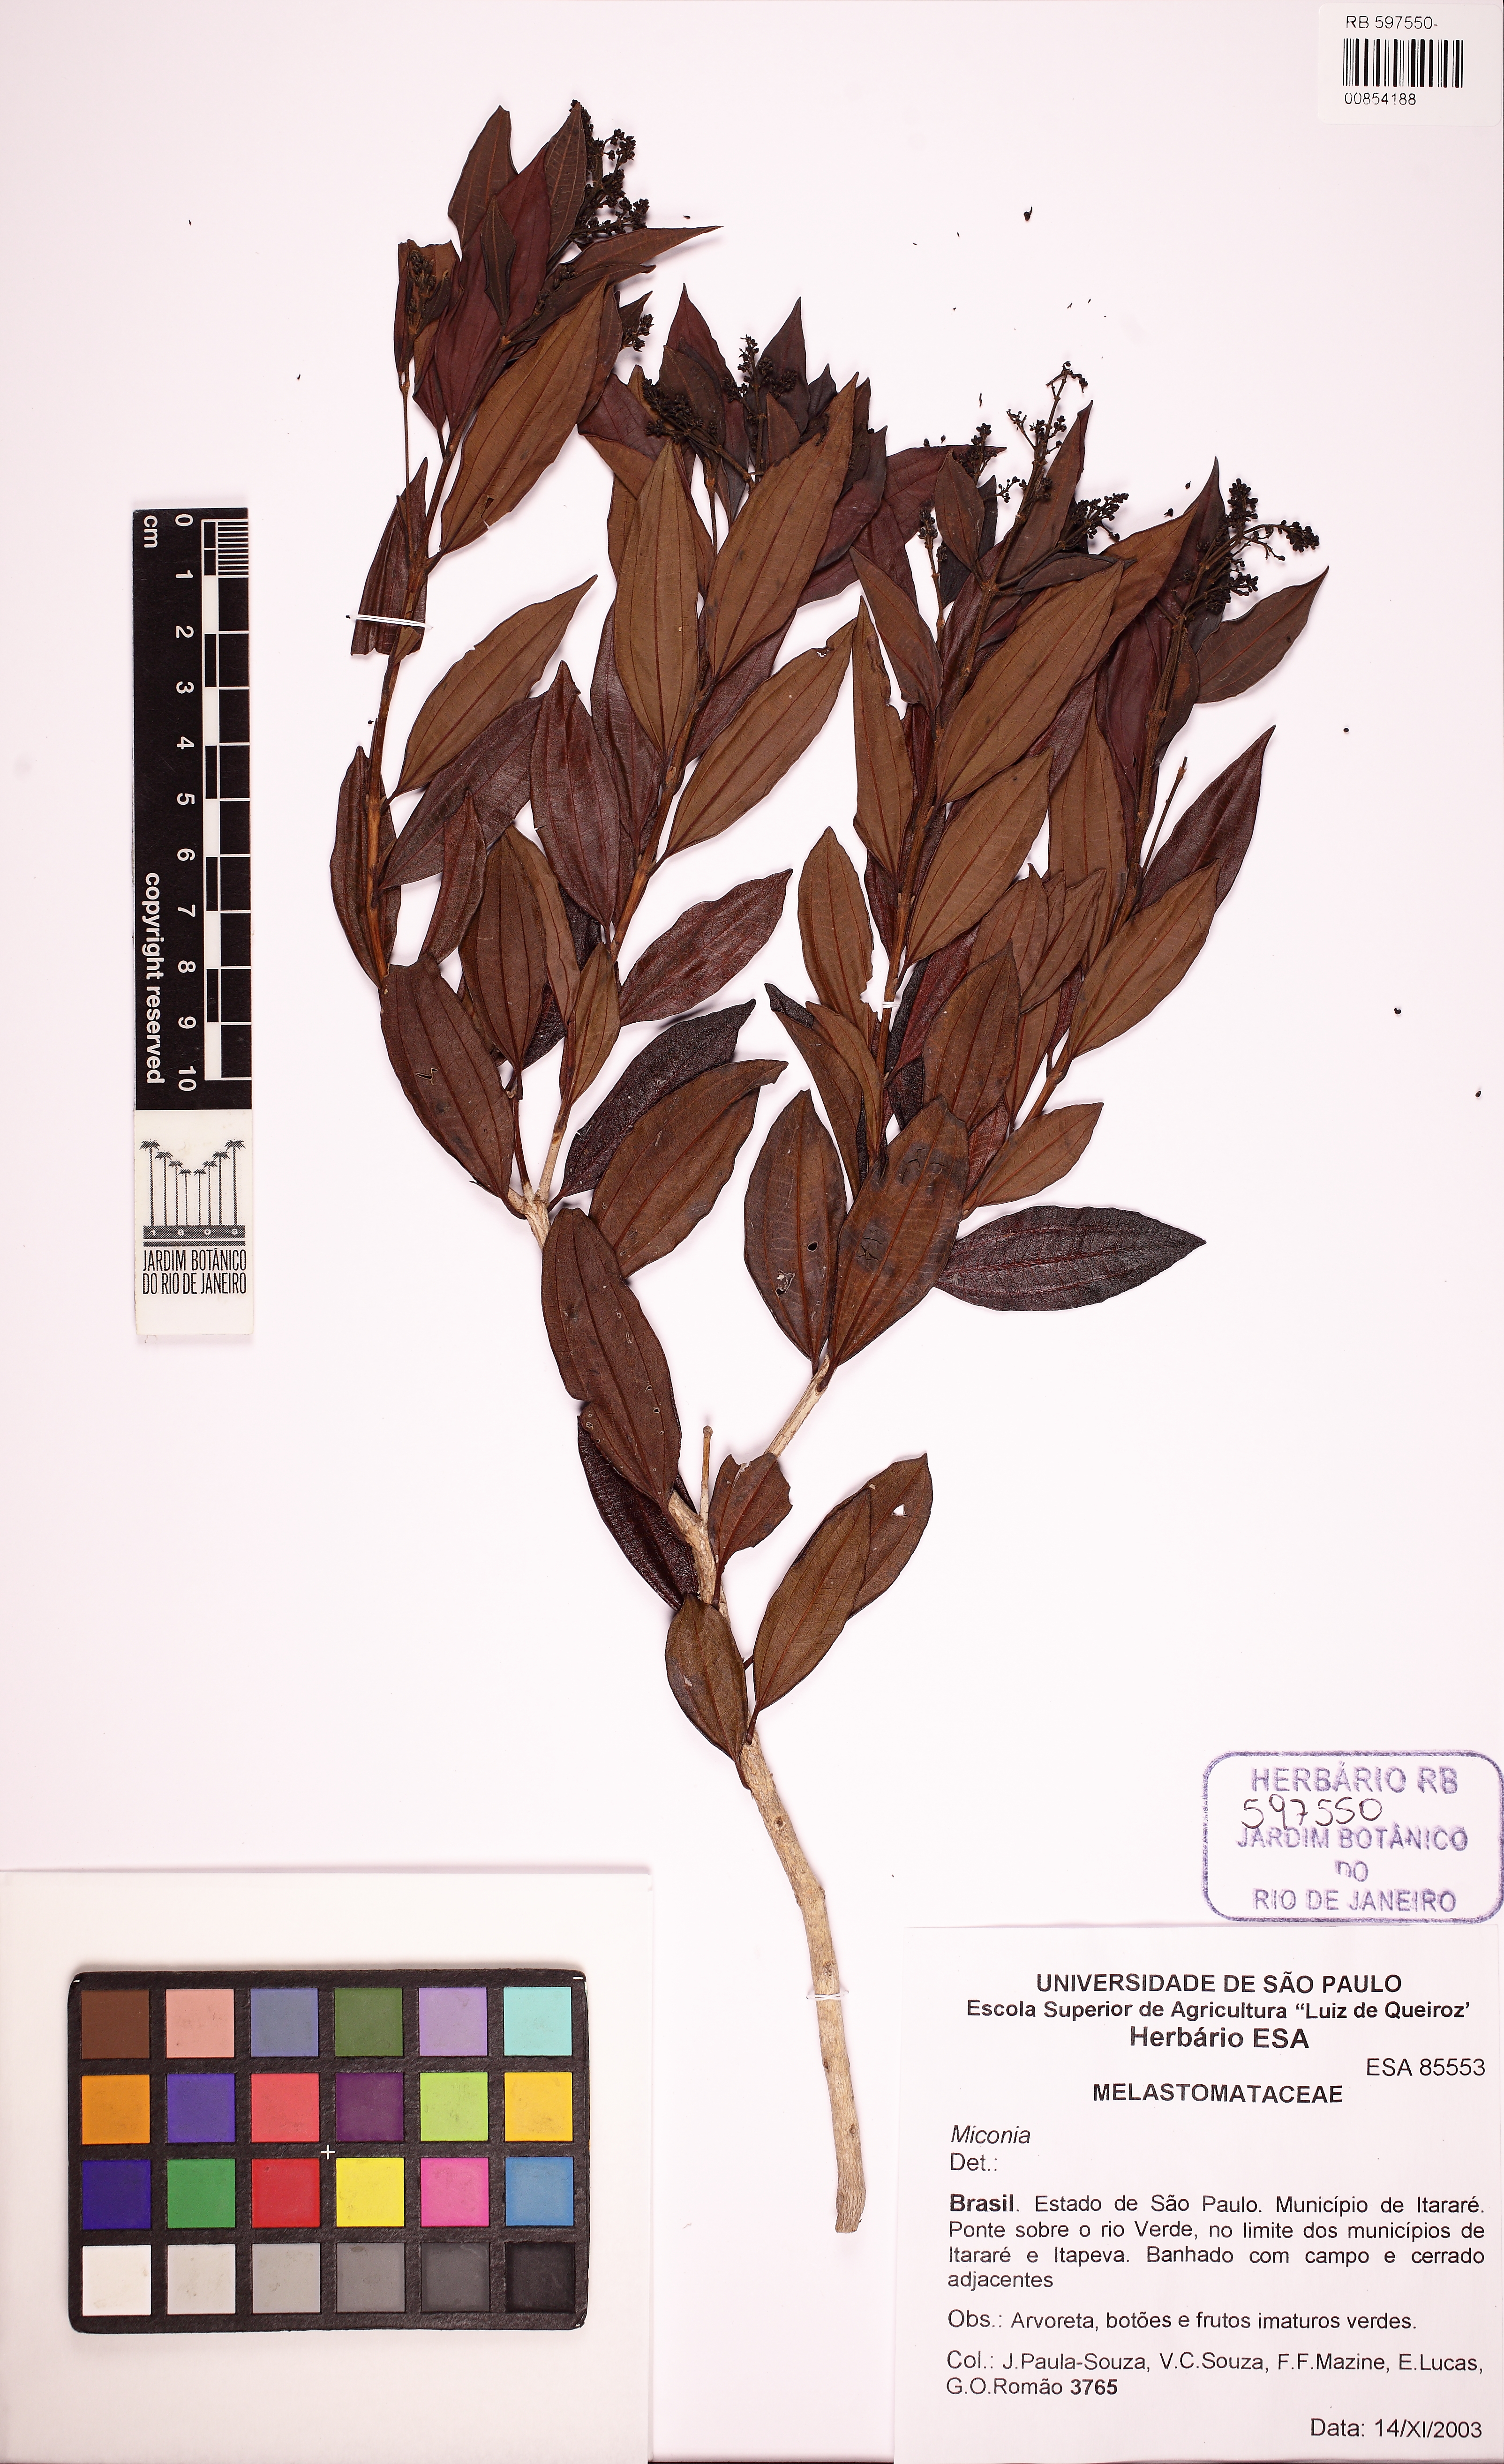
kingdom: Plantae
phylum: Tracheophyta
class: Magnoliopsida
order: Myrtales
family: Melastomataceae
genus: Miconia
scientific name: Miconia ligustroides
